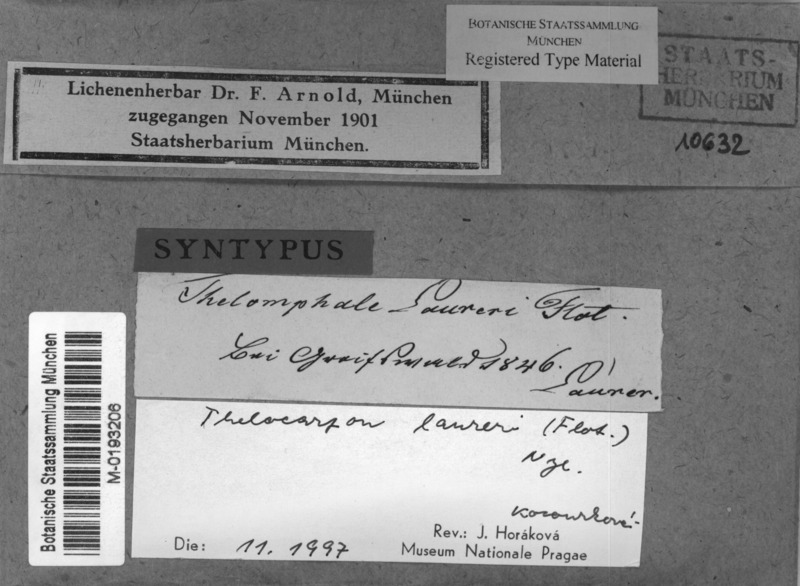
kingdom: Fungi
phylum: Ascomycota
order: Thelocarpales
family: Thelocarpaceae
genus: Thelocarpon
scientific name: Thelocarpon laureri
